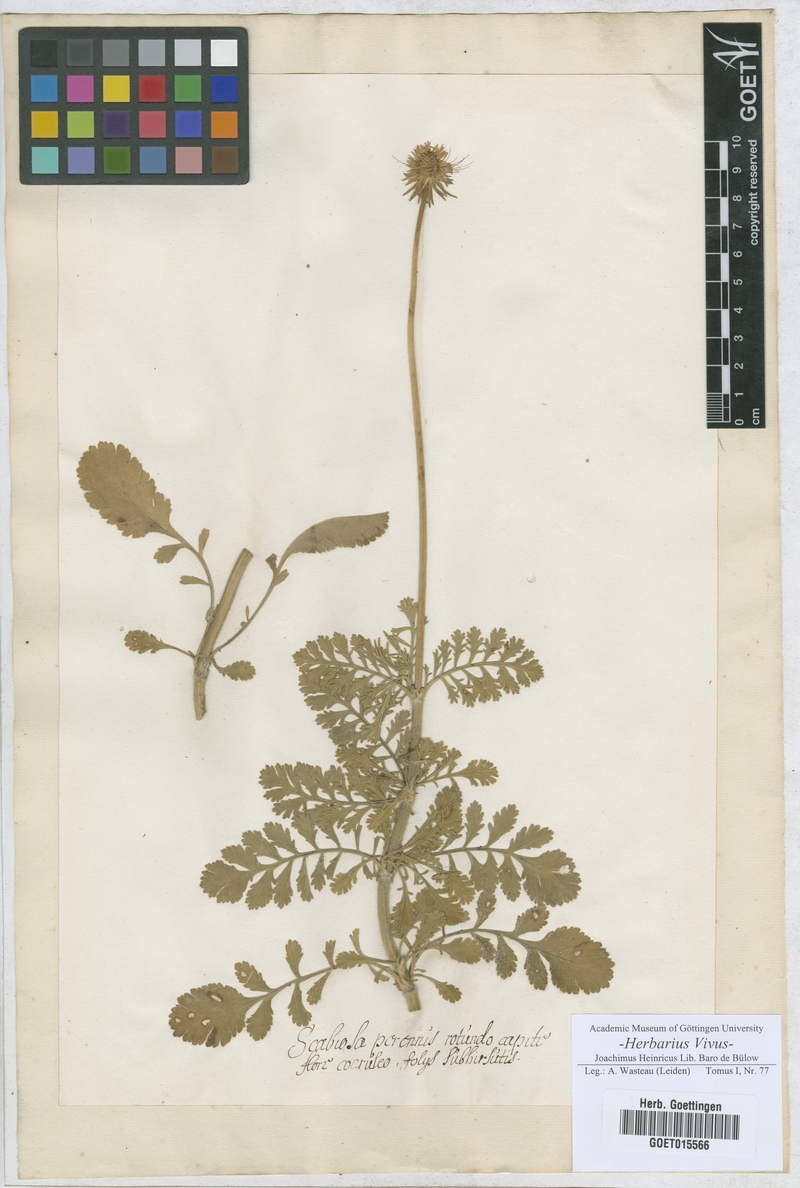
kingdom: Plantae
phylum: Tracheophyta
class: Magnoliopsida
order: Dipsacales
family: Caprifoliaceae
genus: Scabiosa
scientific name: Scabiosa
